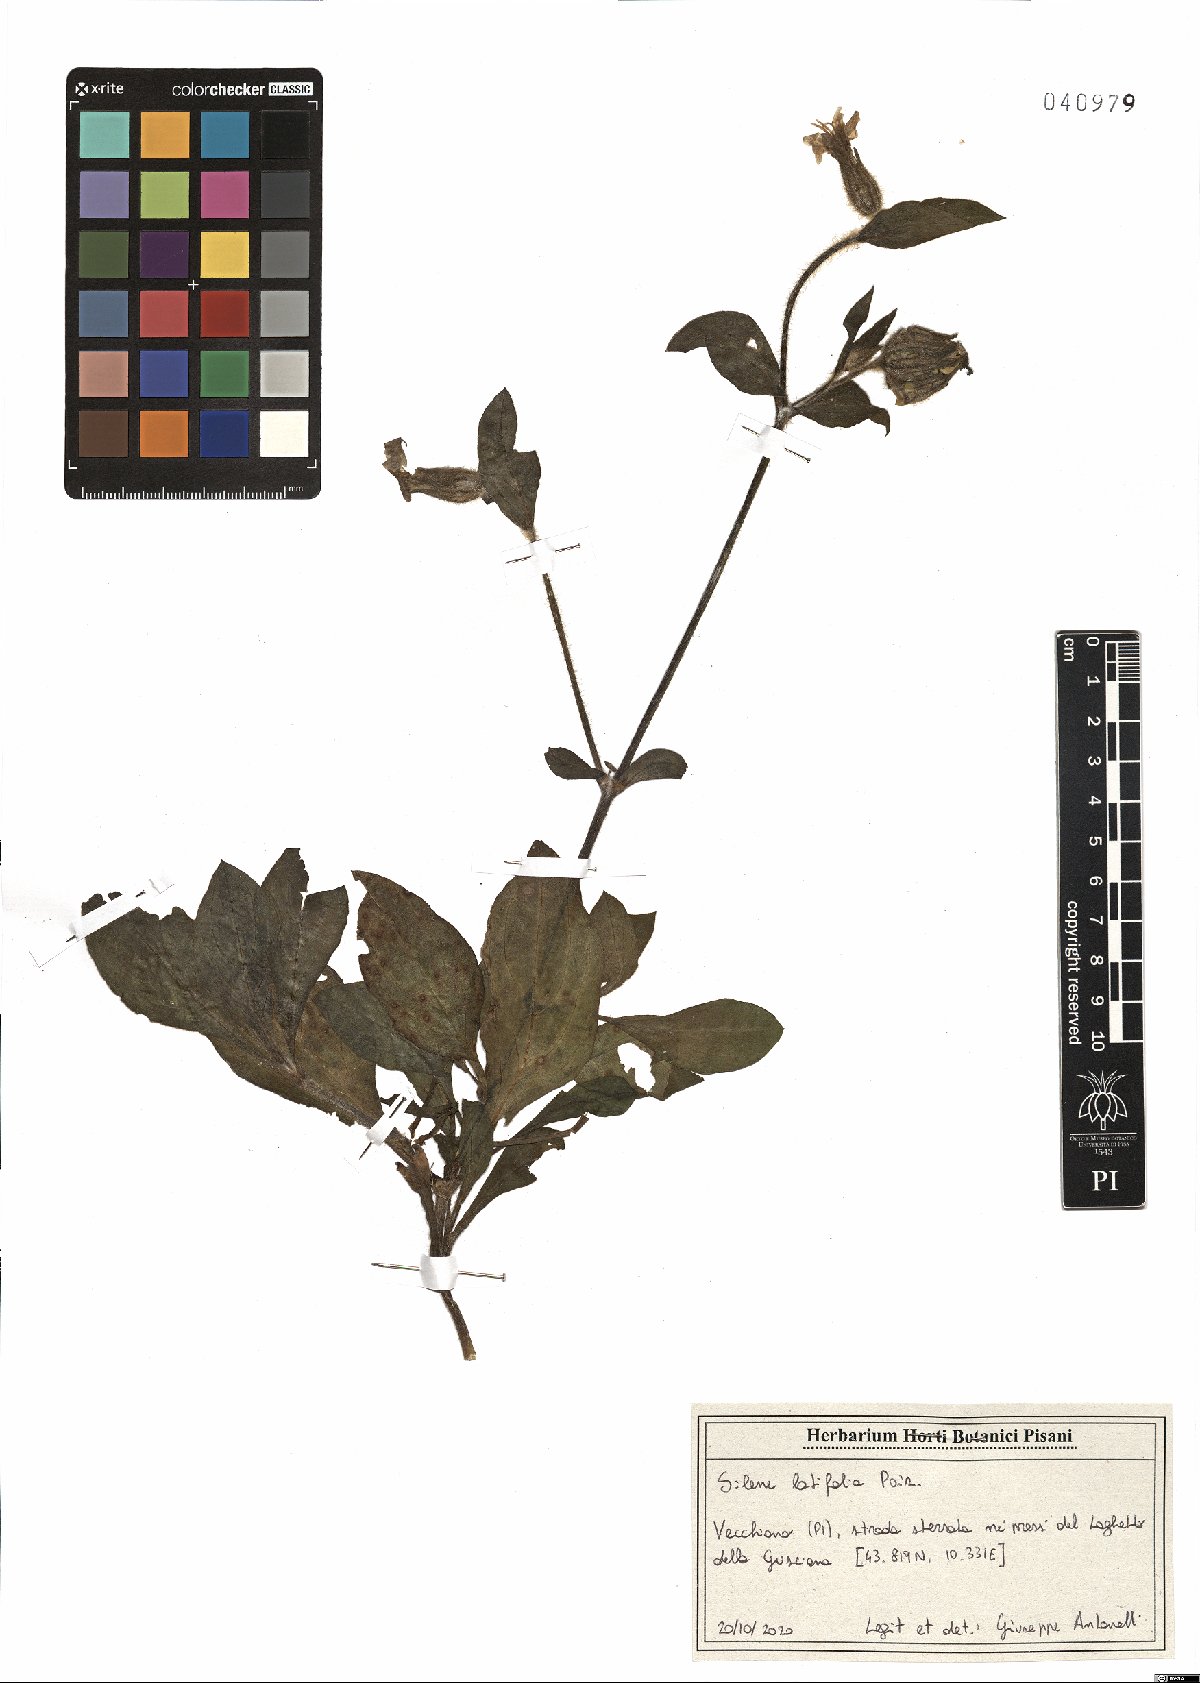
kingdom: Plantae
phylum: Tracheophyta
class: Magnoliopsida
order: Caryophyllales
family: Caryophyllaceae
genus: Silene
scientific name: Silene latifolia
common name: White campion
